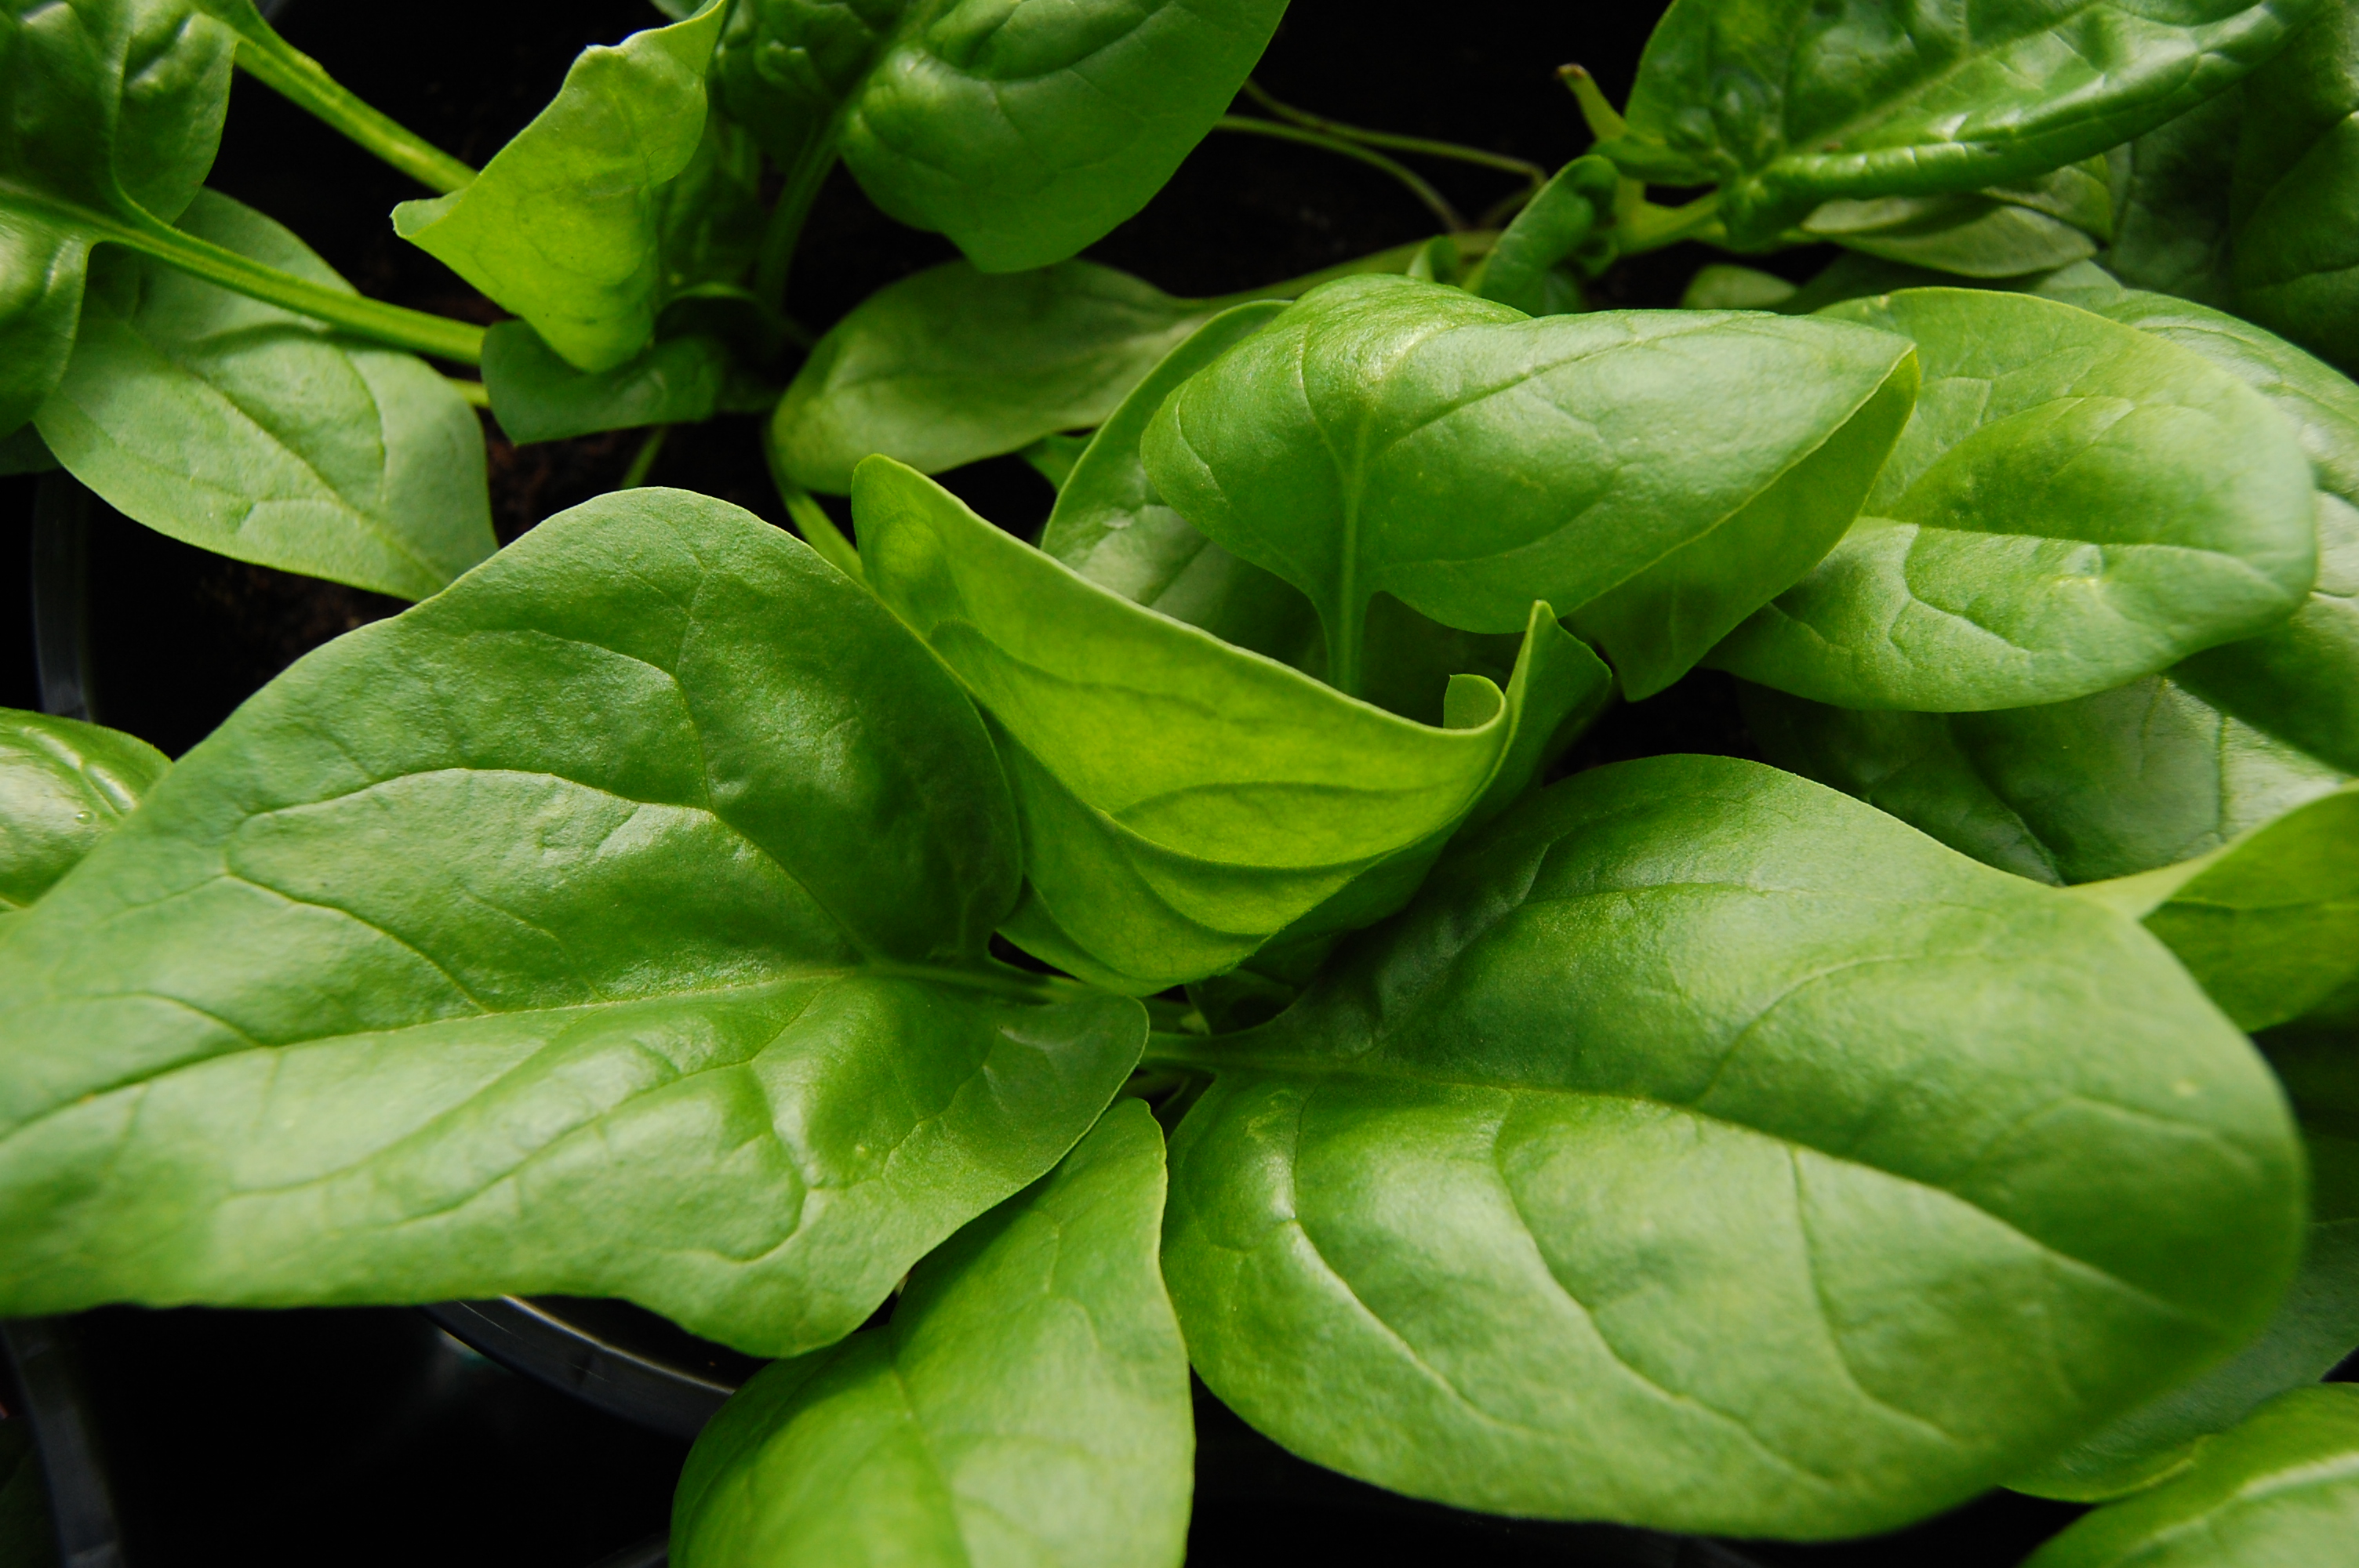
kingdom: Plantae
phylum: Tracheophyta
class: Magnoliopsida
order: Caryophyllales
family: Amaranthaceae
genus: Spinacia
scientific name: Spinacia oleracea
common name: Spinach
